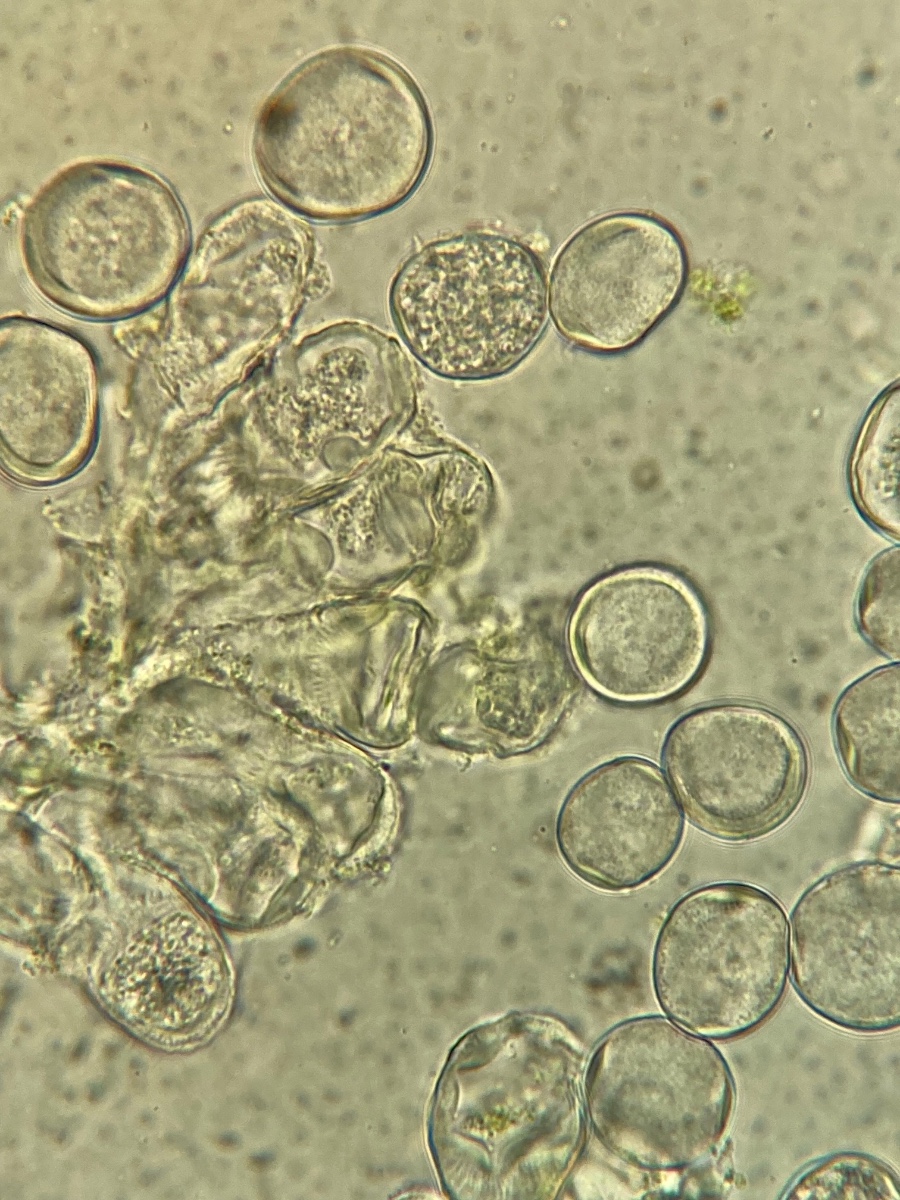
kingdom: Chromista
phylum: Oomycota
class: Peronosporea
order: Albuginales
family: Albuginaceae
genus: Pustula
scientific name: Pustula tragopogonis
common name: Sunflower white rust
